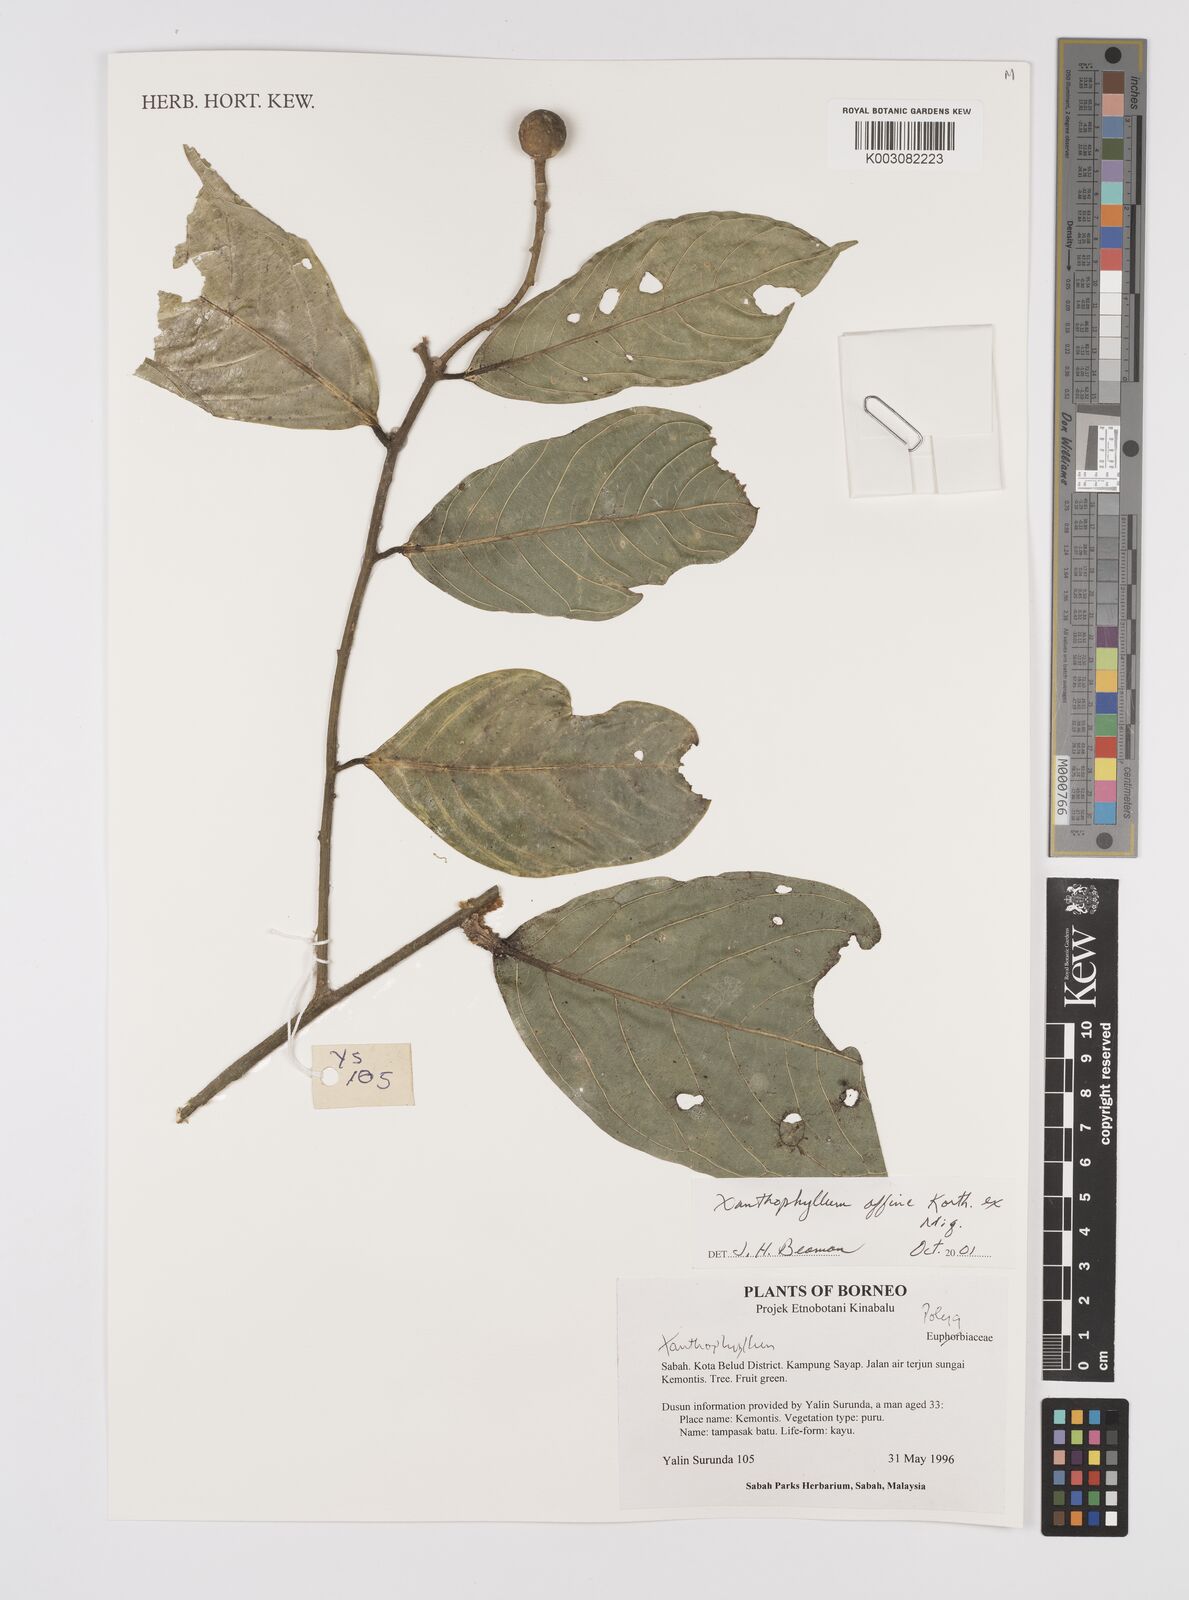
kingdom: Plantae
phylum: Tracheophyta
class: Magnoliopsida
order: Fabales
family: Polygalaceae
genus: Xanthophyllum
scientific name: Xanthophyllum flavescens
